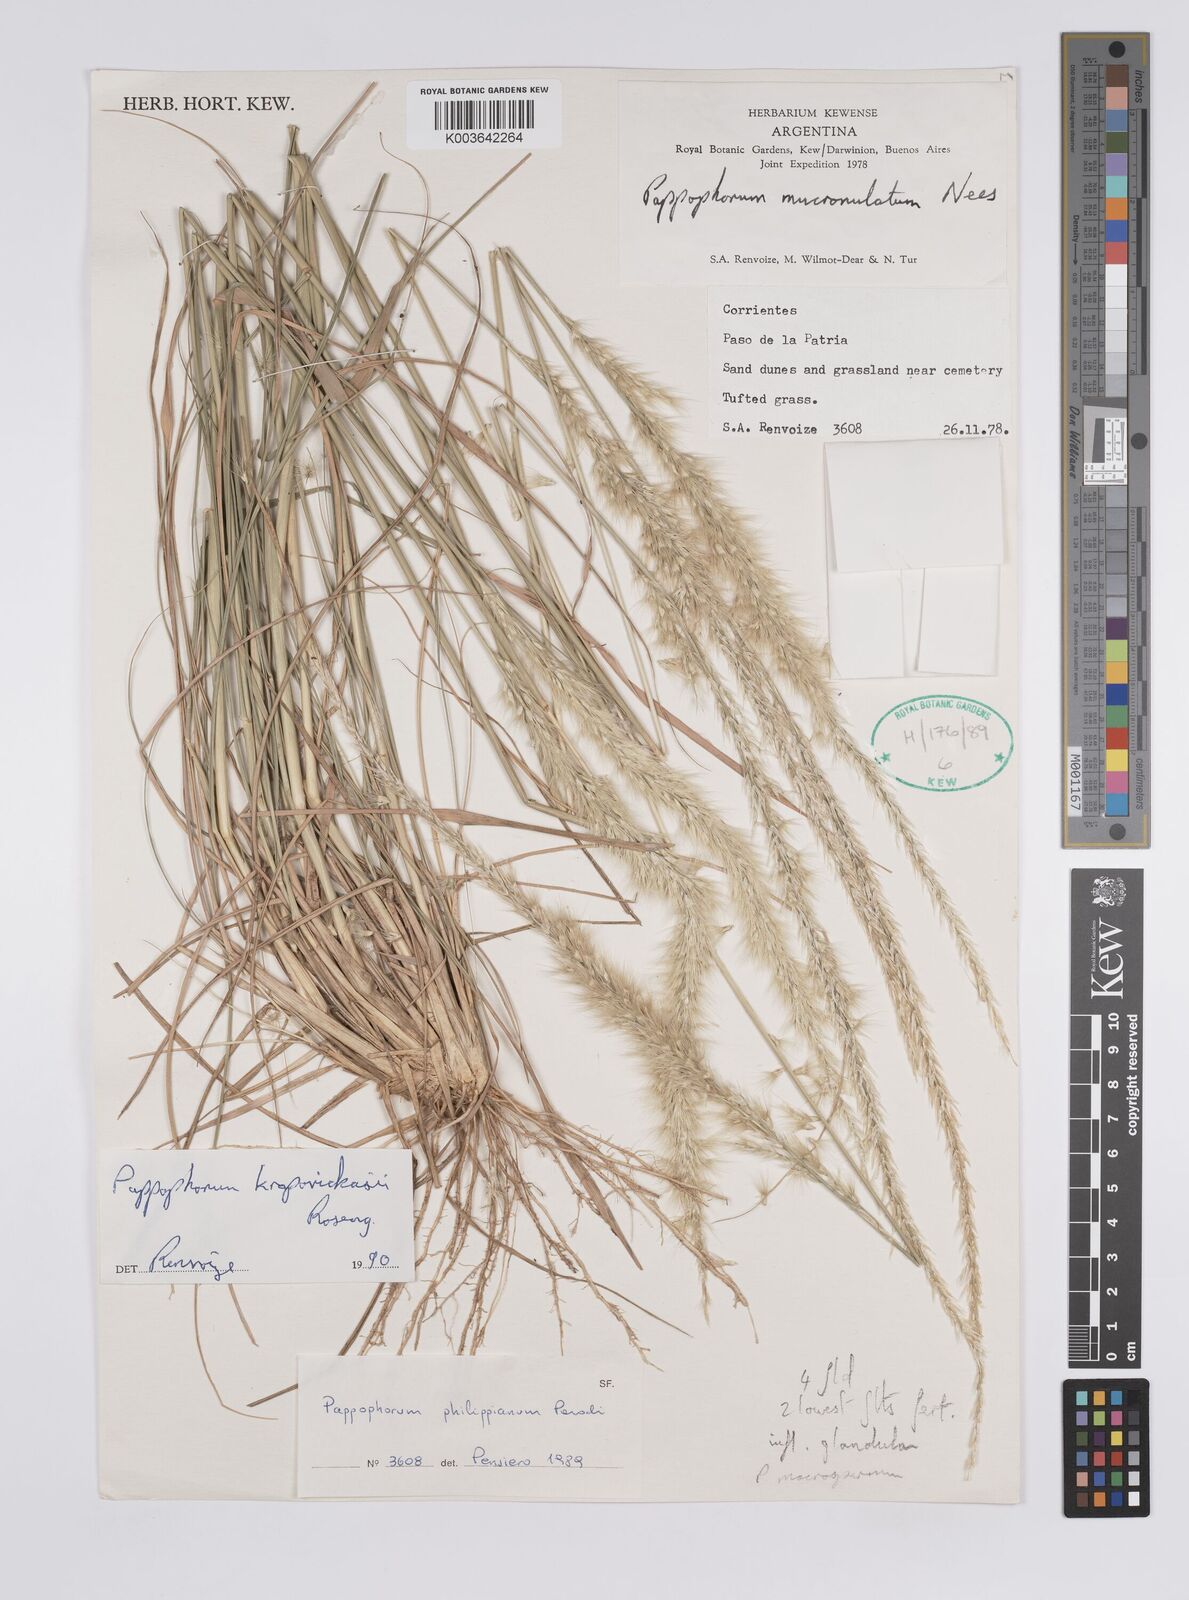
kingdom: Plantae
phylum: Tracheophyta
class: Liliopsida
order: Poales
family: Poaceae
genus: Pappophorum
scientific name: Pappophorum krapovickasii
